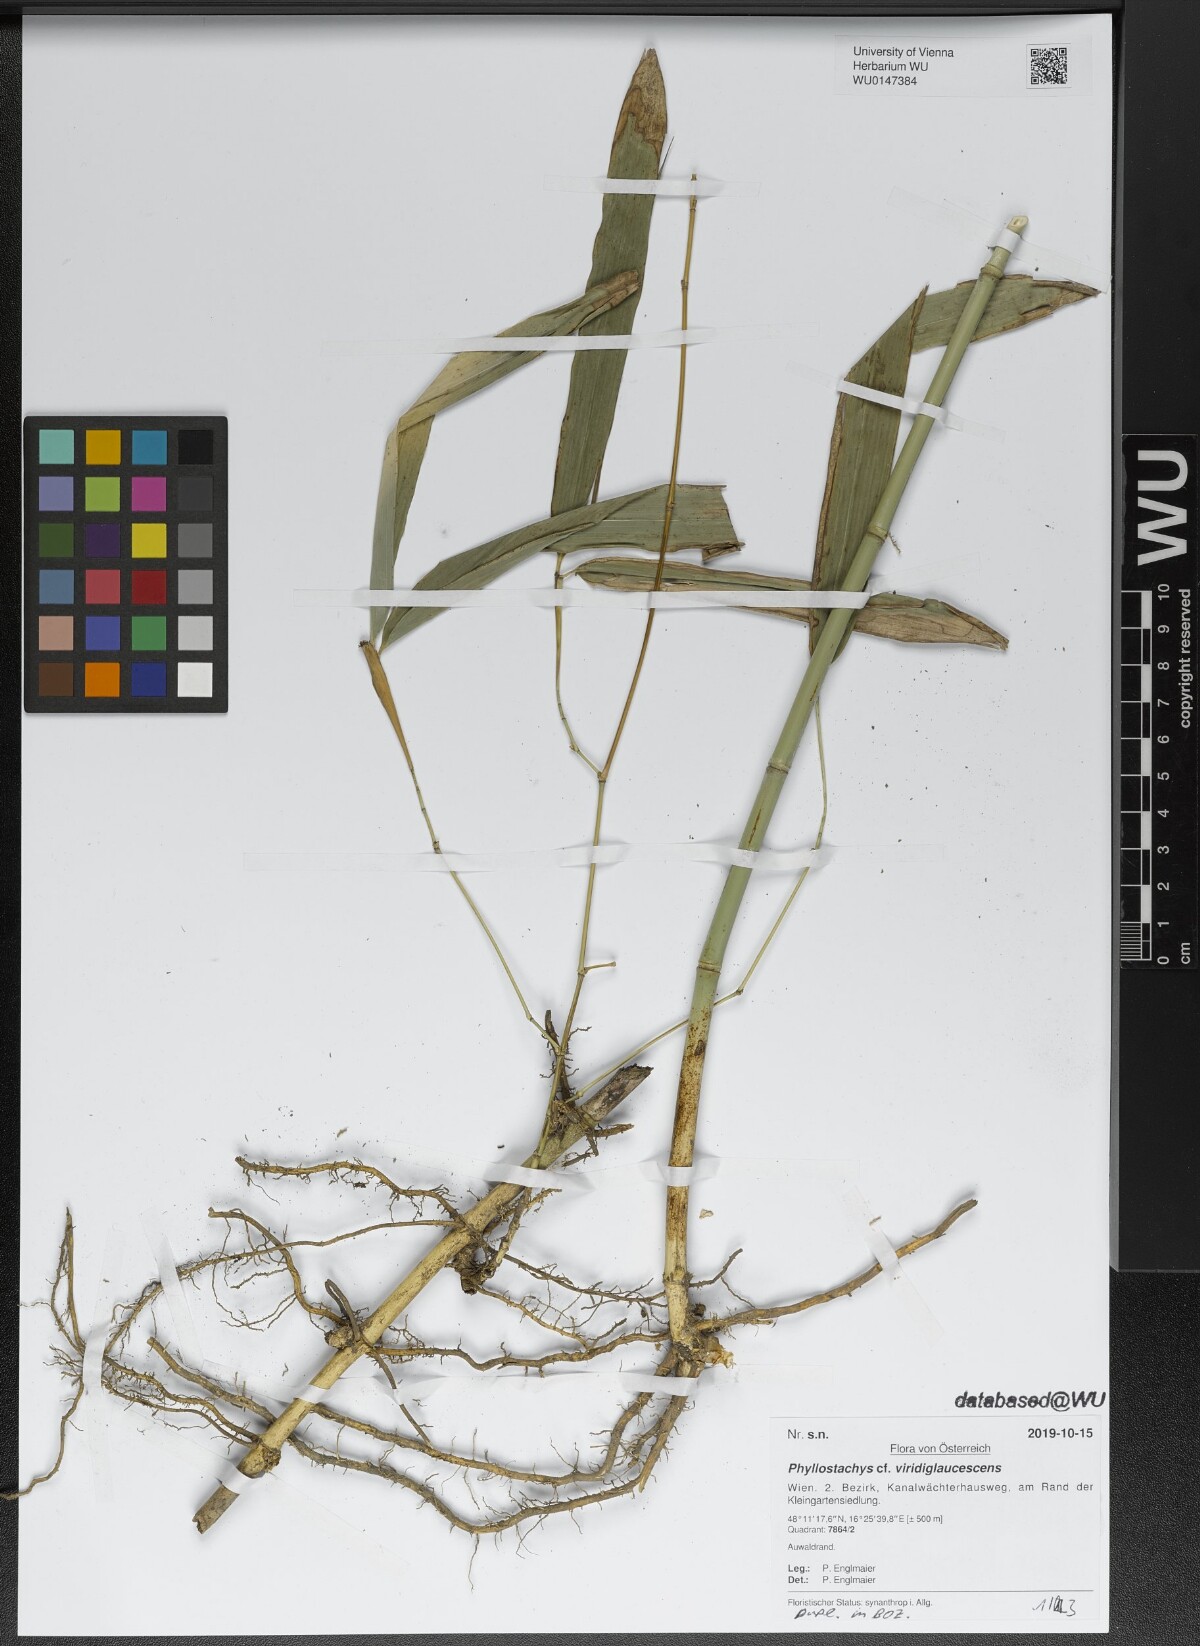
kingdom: Plantae
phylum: Tracheophyta
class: Liliopsida
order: Poales
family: Poaceae
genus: Phyllostachys
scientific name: Phyllostachys viridiglaucescens
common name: Greenwax golden bamboo
